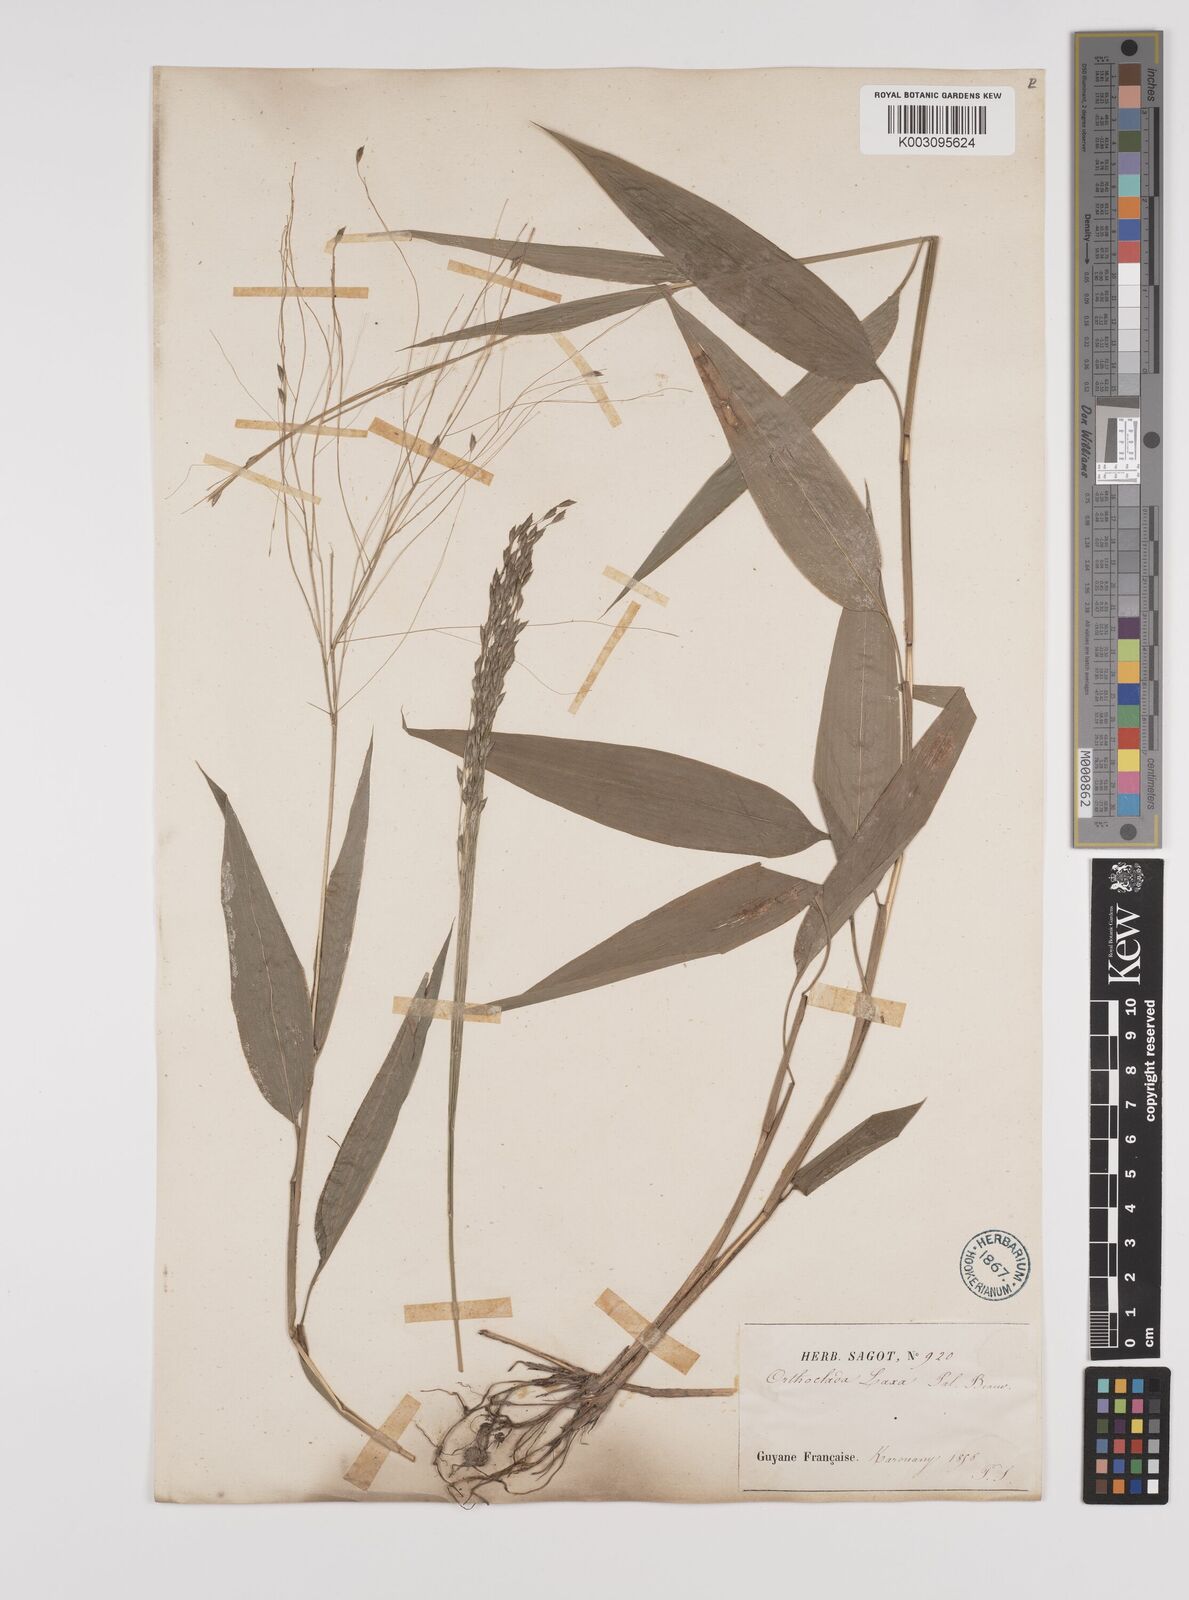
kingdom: Plantae
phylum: Tracheophyta
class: Liliopsida
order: Poales
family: Poaceae
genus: Orthoclada
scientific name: Orthoclada laxa
